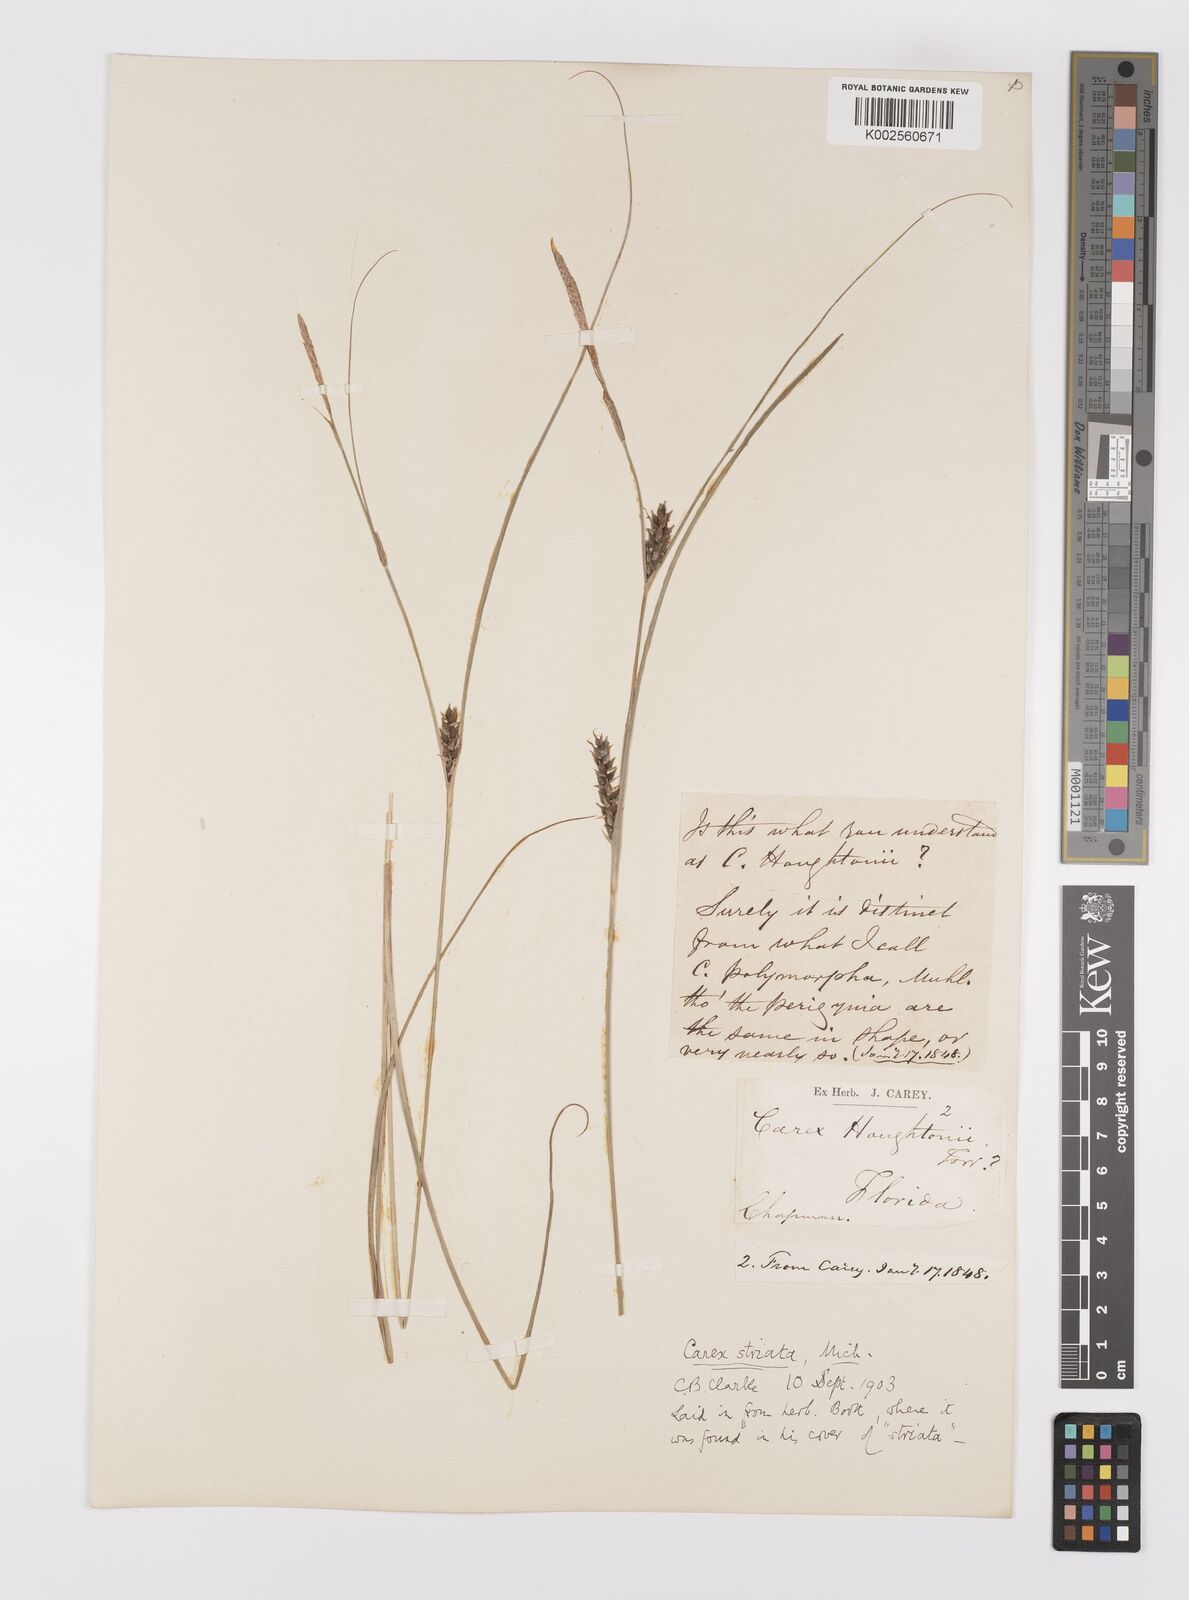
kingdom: Plantae
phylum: Tracheophyta
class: Liliopsida
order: Poales
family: Cyperaceae
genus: Carex
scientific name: Carex striata
